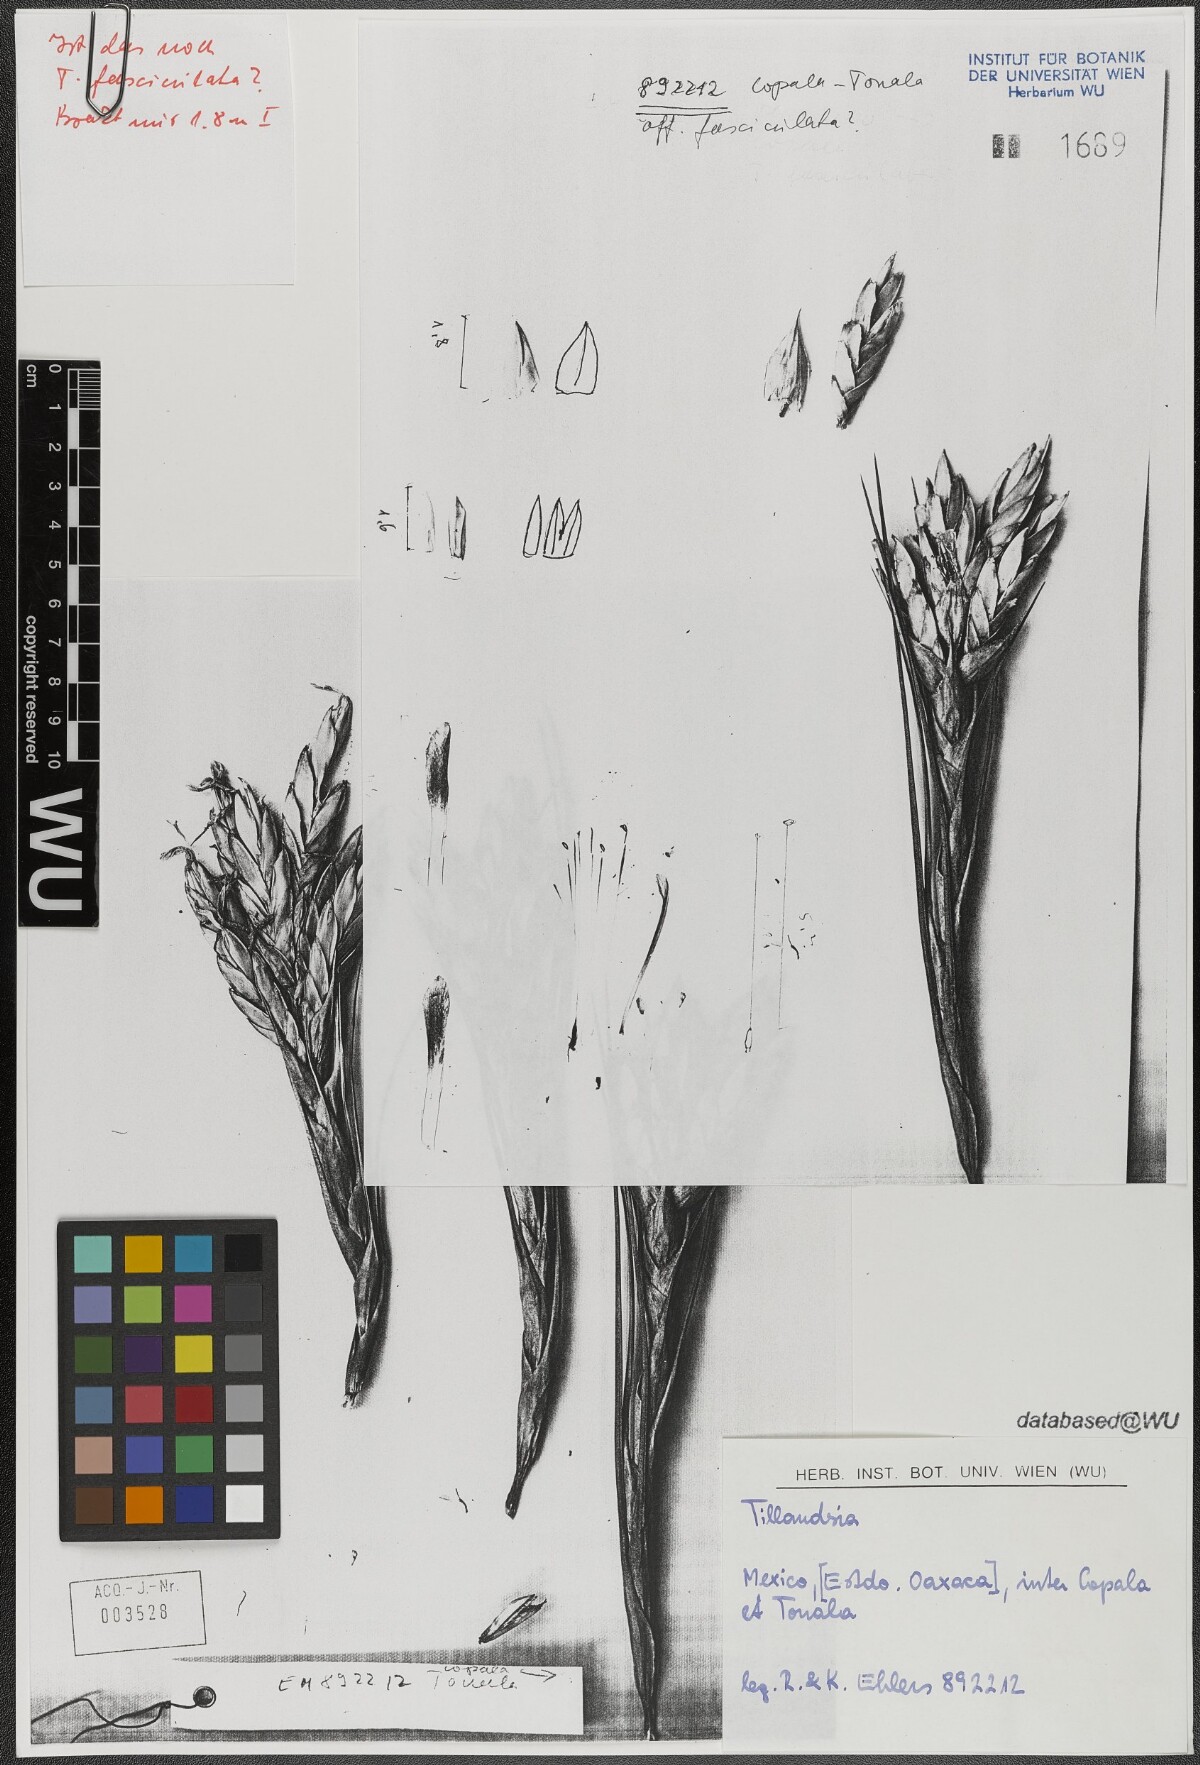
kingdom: Plantae
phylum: Tracheophyta
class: Liliopsida
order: Poales
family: Bromeliaceae
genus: Tillandsia
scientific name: Tillandsia fasciculata
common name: Giant airplant
